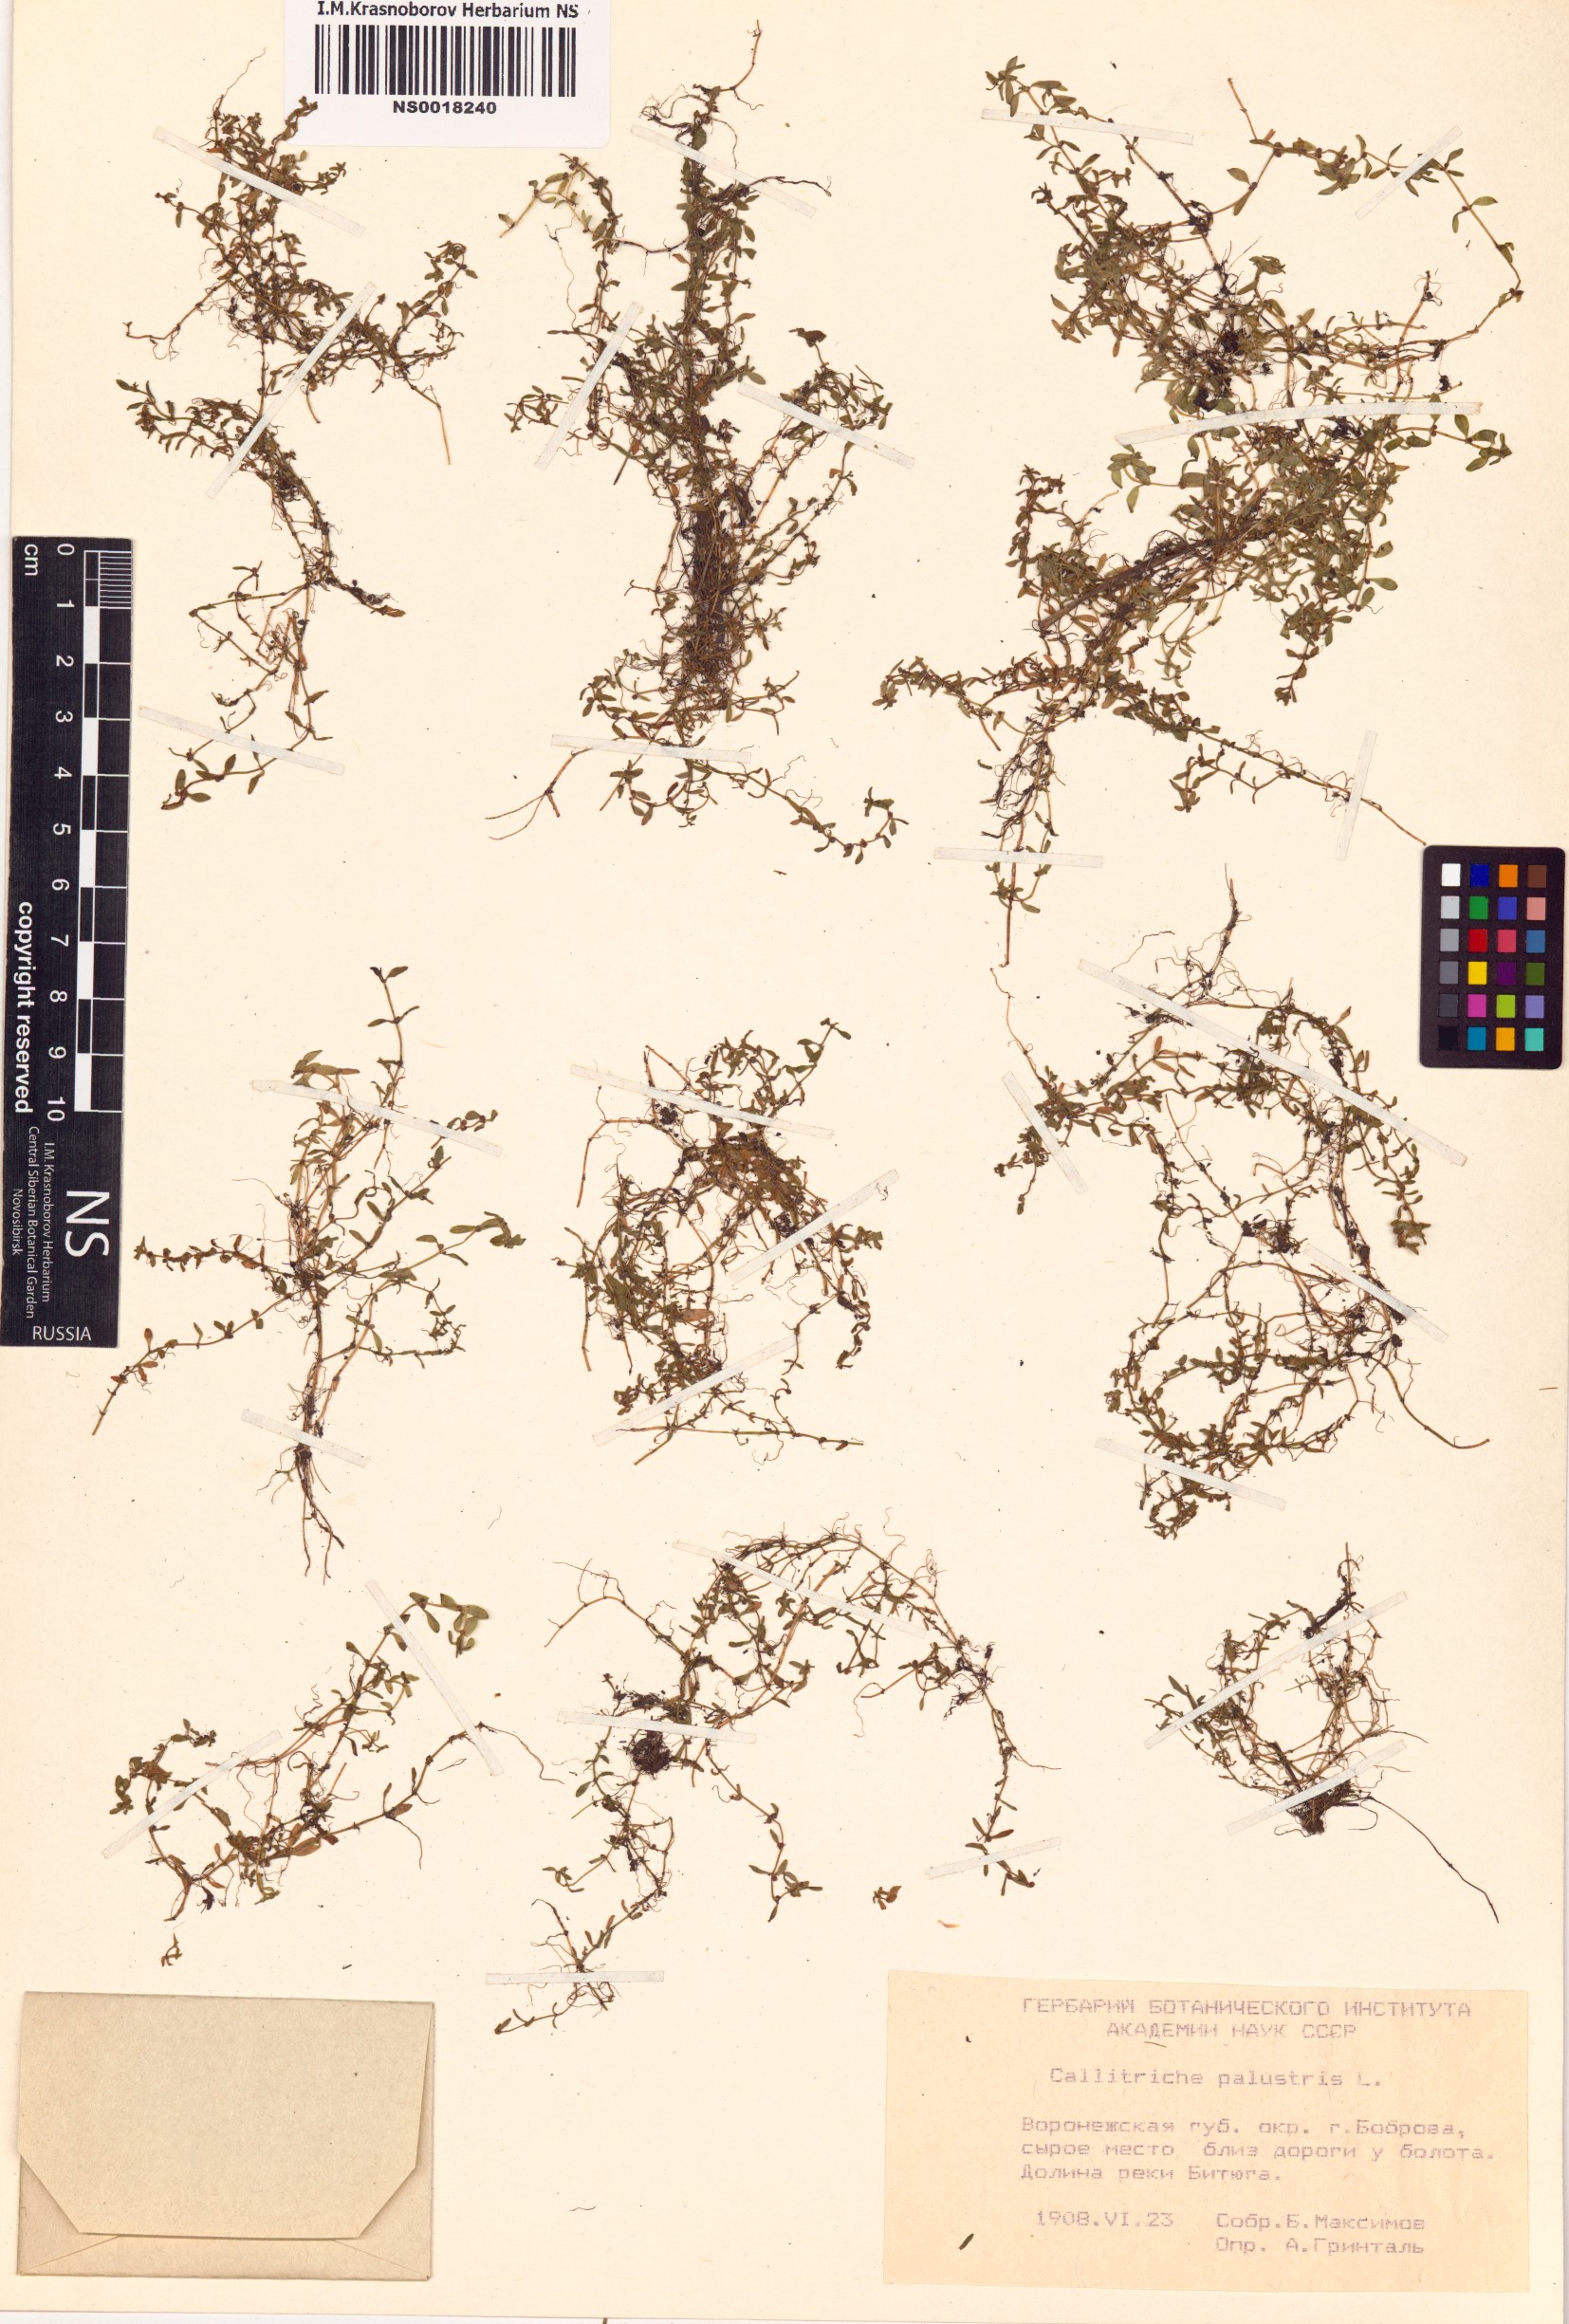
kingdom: Plantae
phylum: Tracheophyta
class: Magnoliopsida
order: Lamiales
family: Plantaginaceae
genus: Callitriche
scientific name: Callitriche palustris
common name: Spring water-starwort
